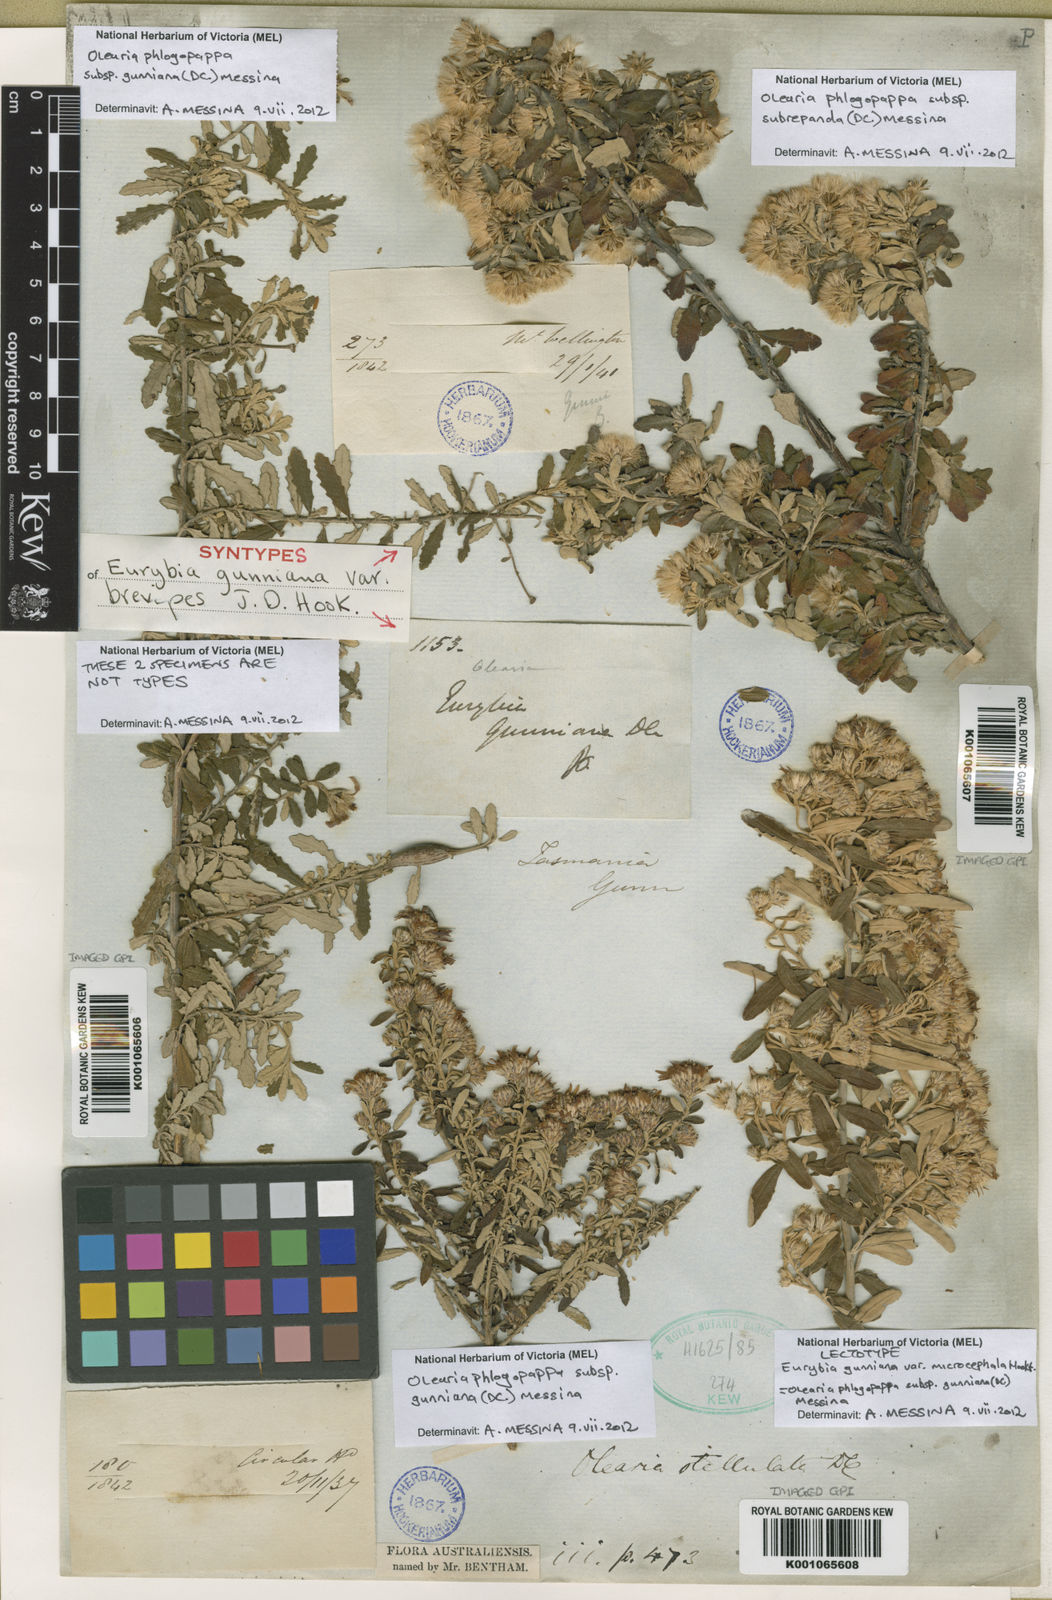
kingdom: Plantae
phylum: Tracheophyta
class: Magnoliopsida
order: Asterales
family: Asteraceae
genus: Olearia
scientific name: Olearia phlogopappa
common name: Alpine daisybush
